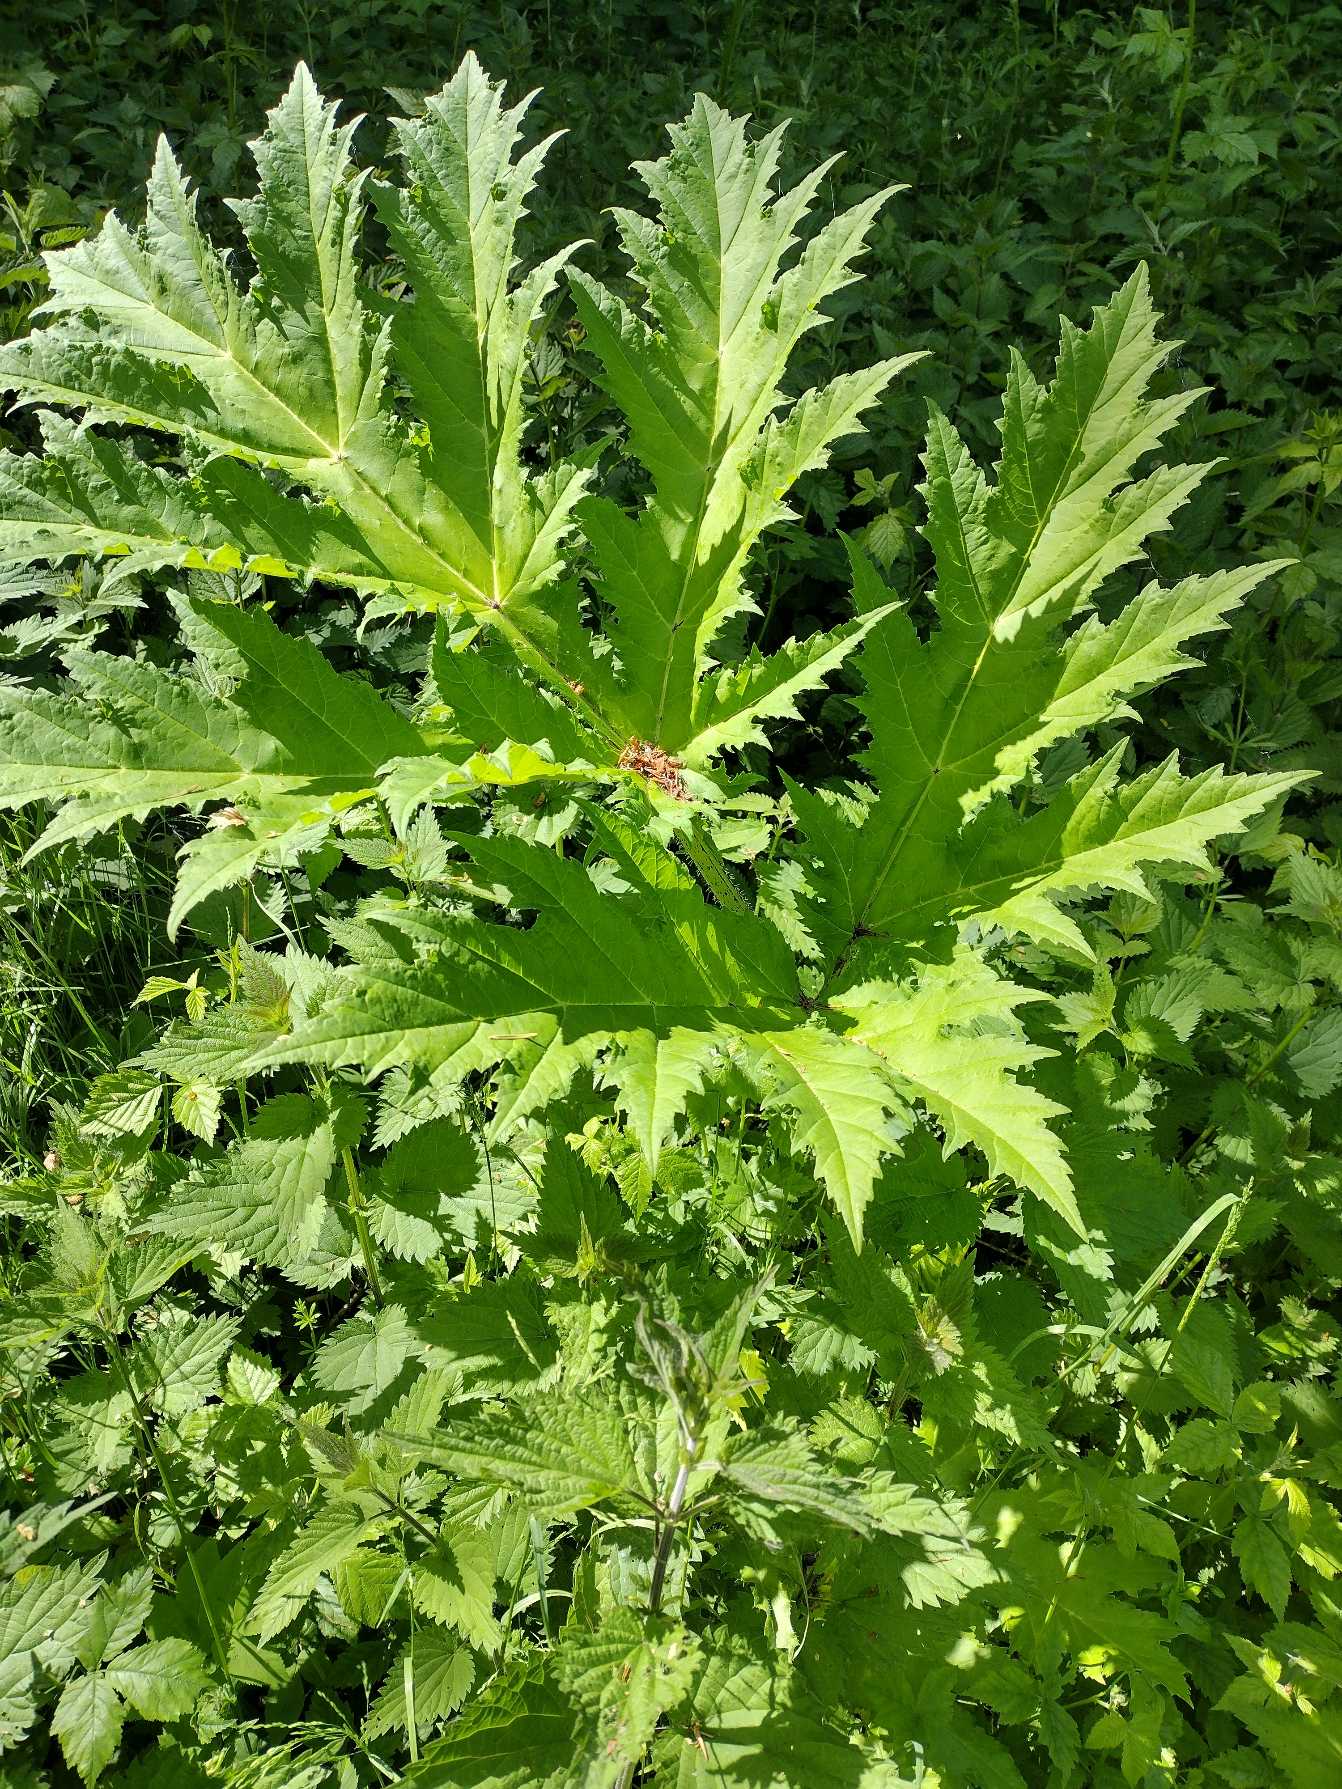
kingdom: Plantae
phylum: Tracheophyta
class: Magnoliopsida
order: Apiales
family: Apiaceae
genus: Heracleum
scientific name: Heracleum mantegazzianum
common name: Kæmpe-bjørneklo
